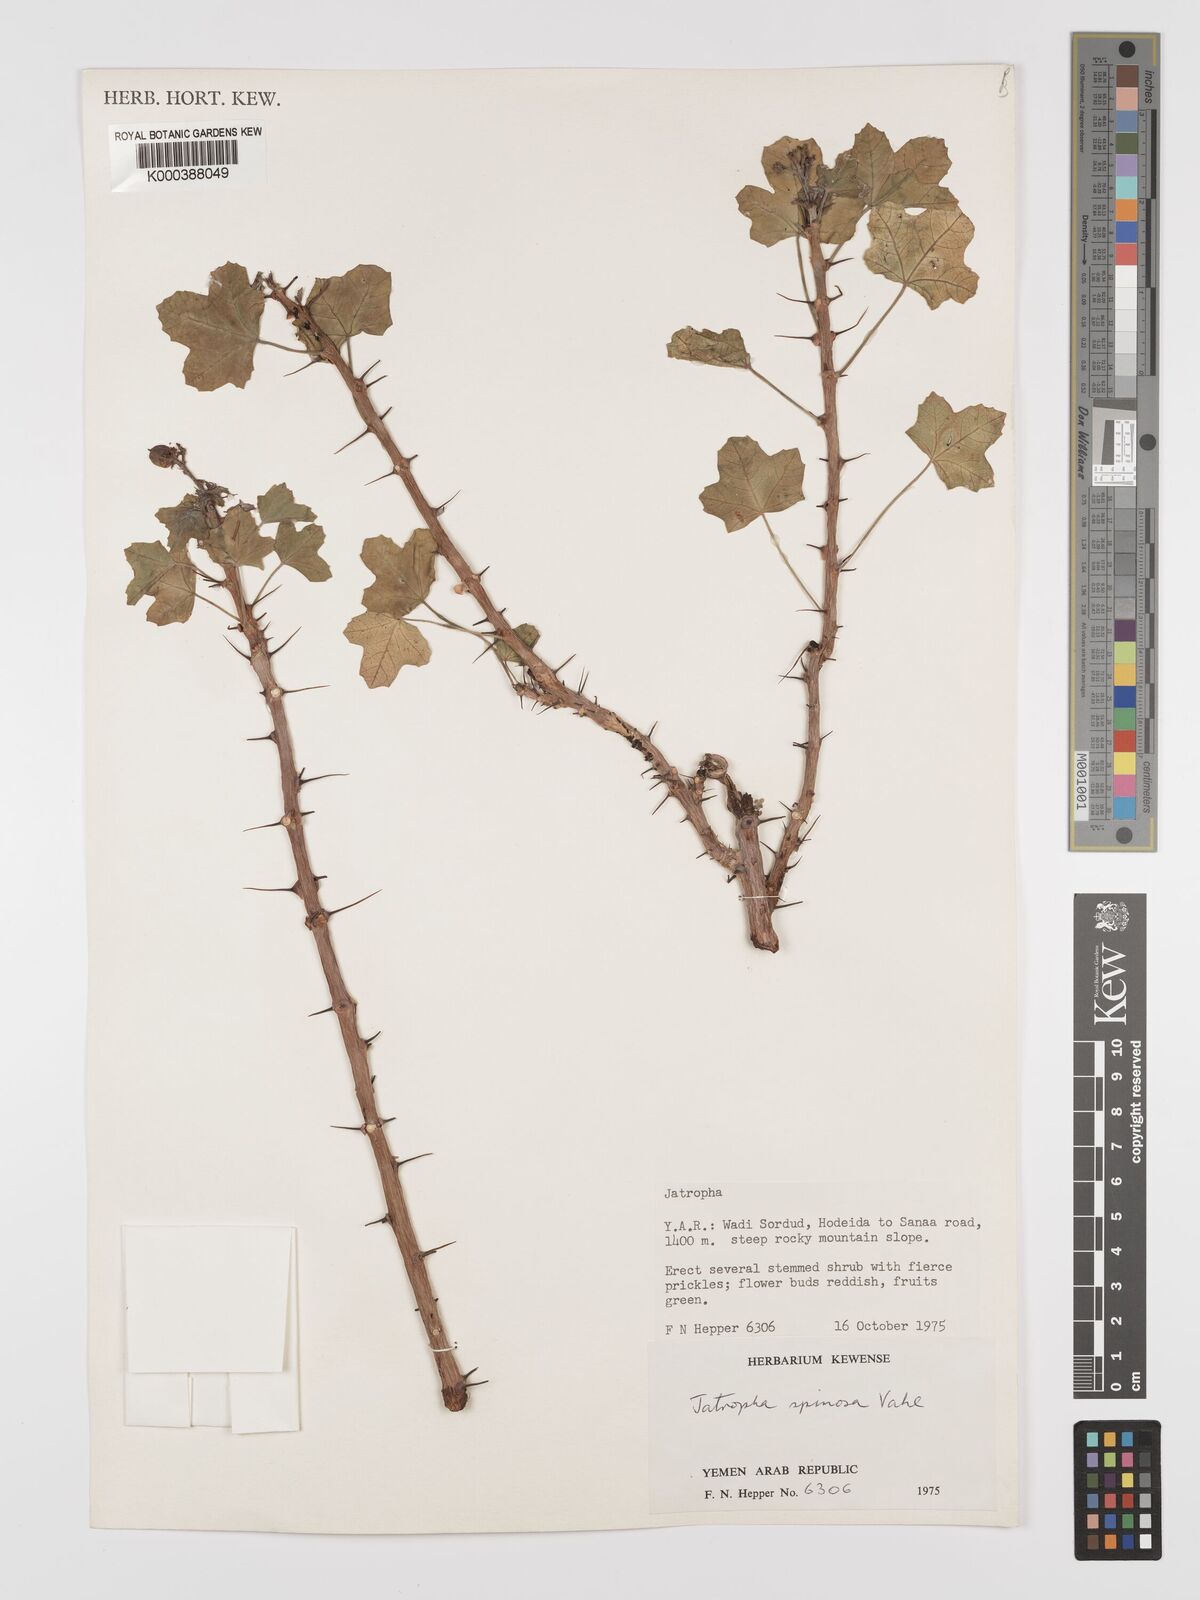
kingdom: Plantae
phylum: Tracheophyta
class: Magnoliopsida
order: Malpighiales
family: Euphorbiaceae
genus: Jatropha
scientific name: Jatropha spinosa
